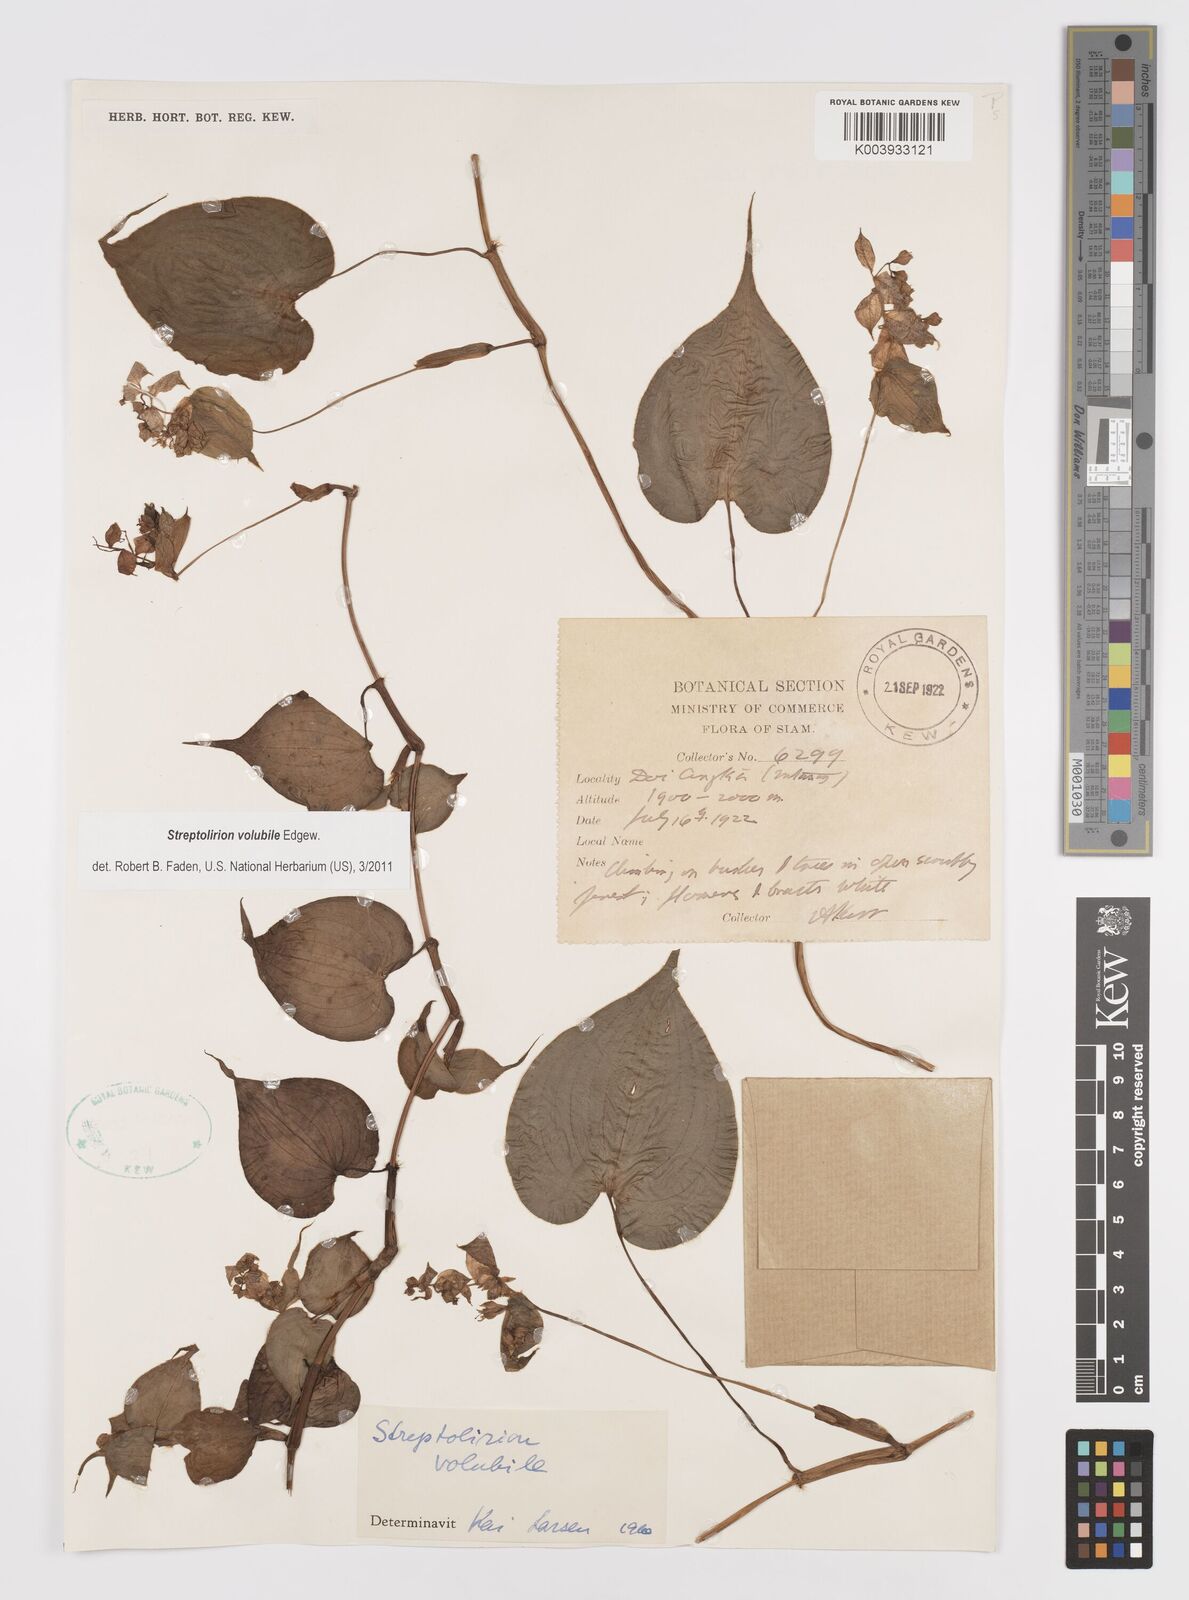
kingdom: Plantae
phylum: Tracheophyta
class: Liliopsida
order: Commelinales
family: Commelinaceae
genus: Streptolirion
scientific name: Streptolirion volubile
